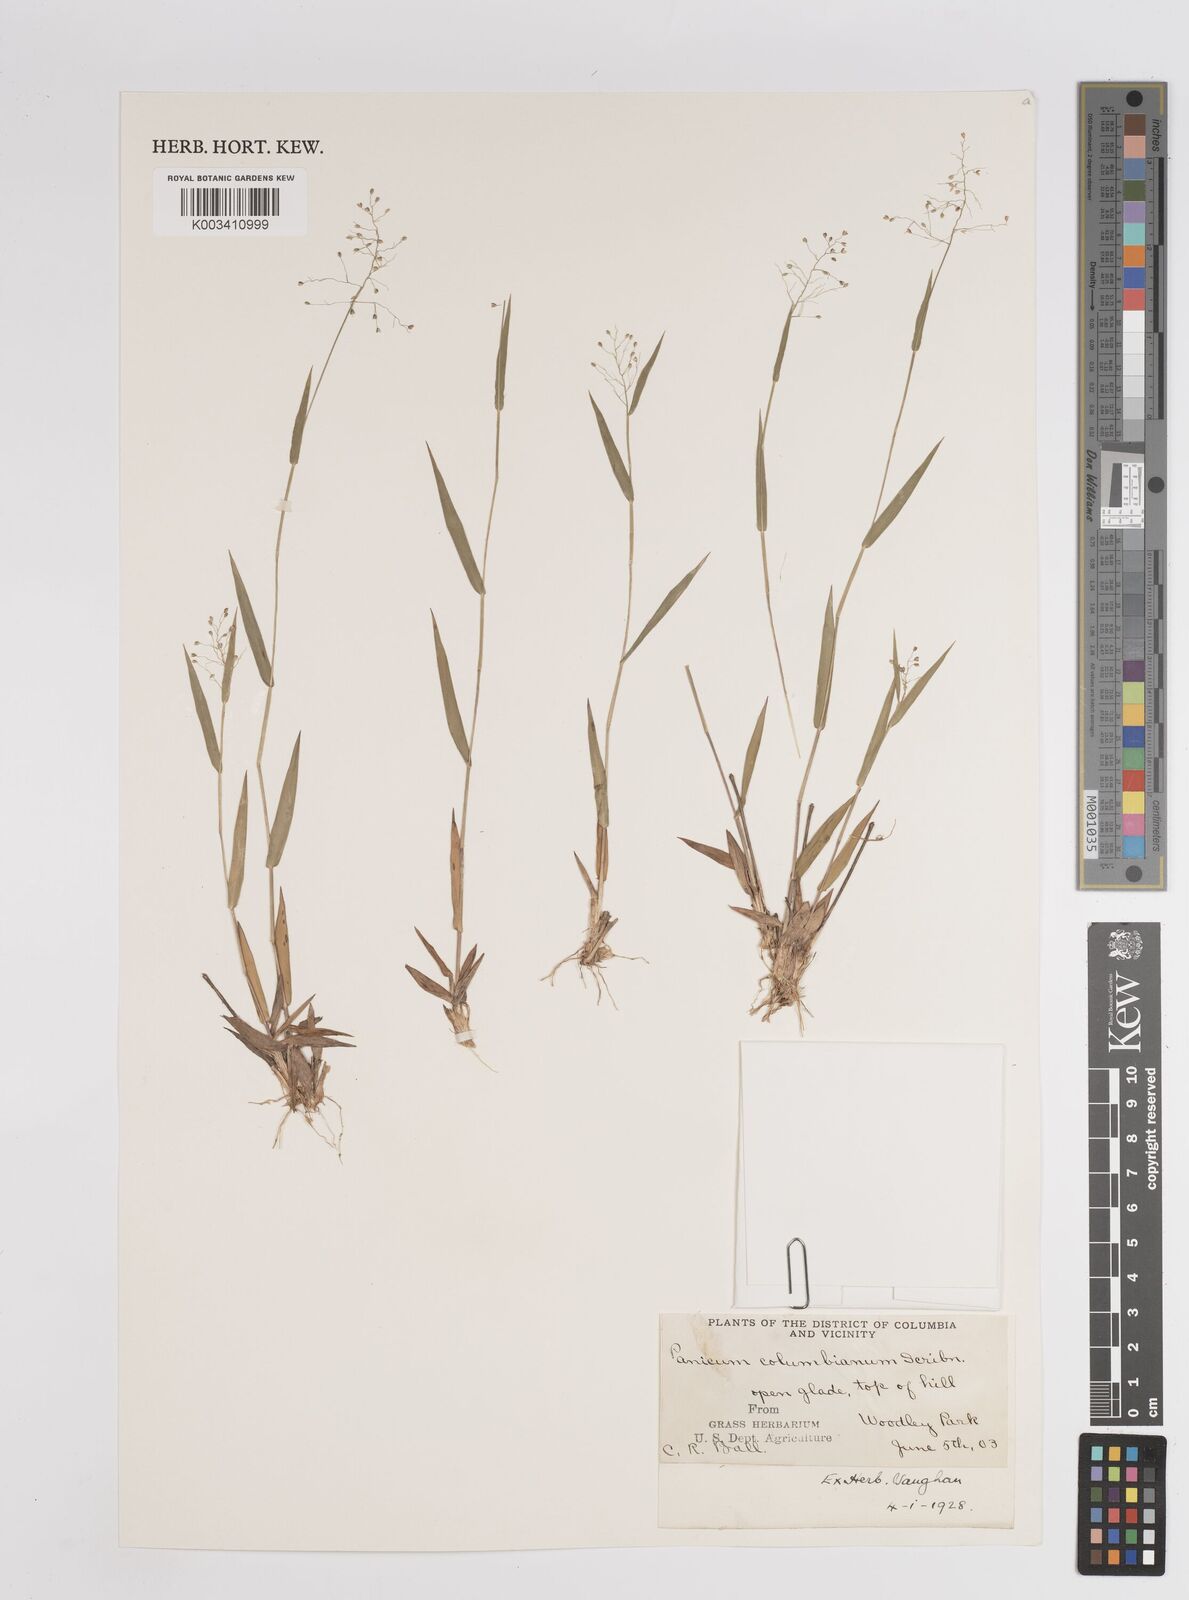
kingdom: Plantae
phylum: Tracheophyta
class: Liliopsida
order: Poales
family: Poaceae
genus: Dichanthelium
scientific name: Dichanthelium webberianum
